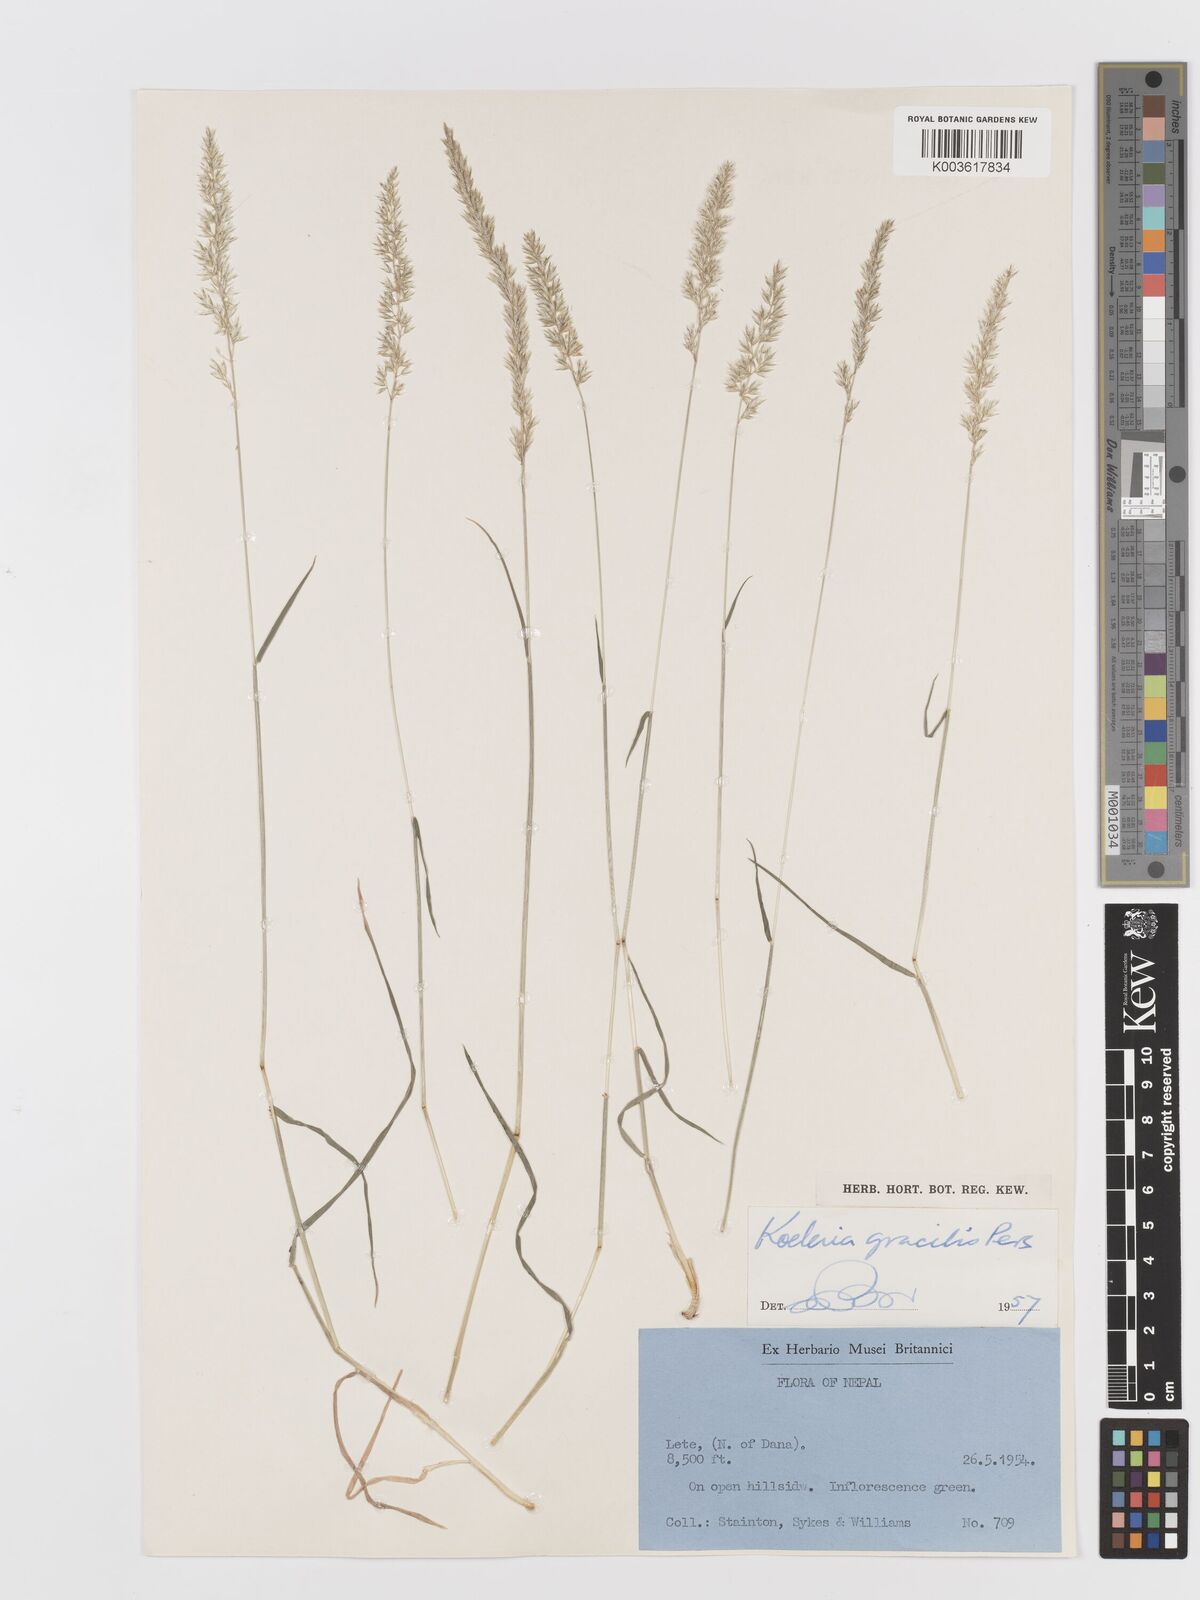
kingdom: Plantae
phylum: Tracheophyta
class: Liliopsida
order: Poales
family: Poaceae
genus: Koeleria
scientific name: Koeleria macrantha
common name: Crested hair-grass
